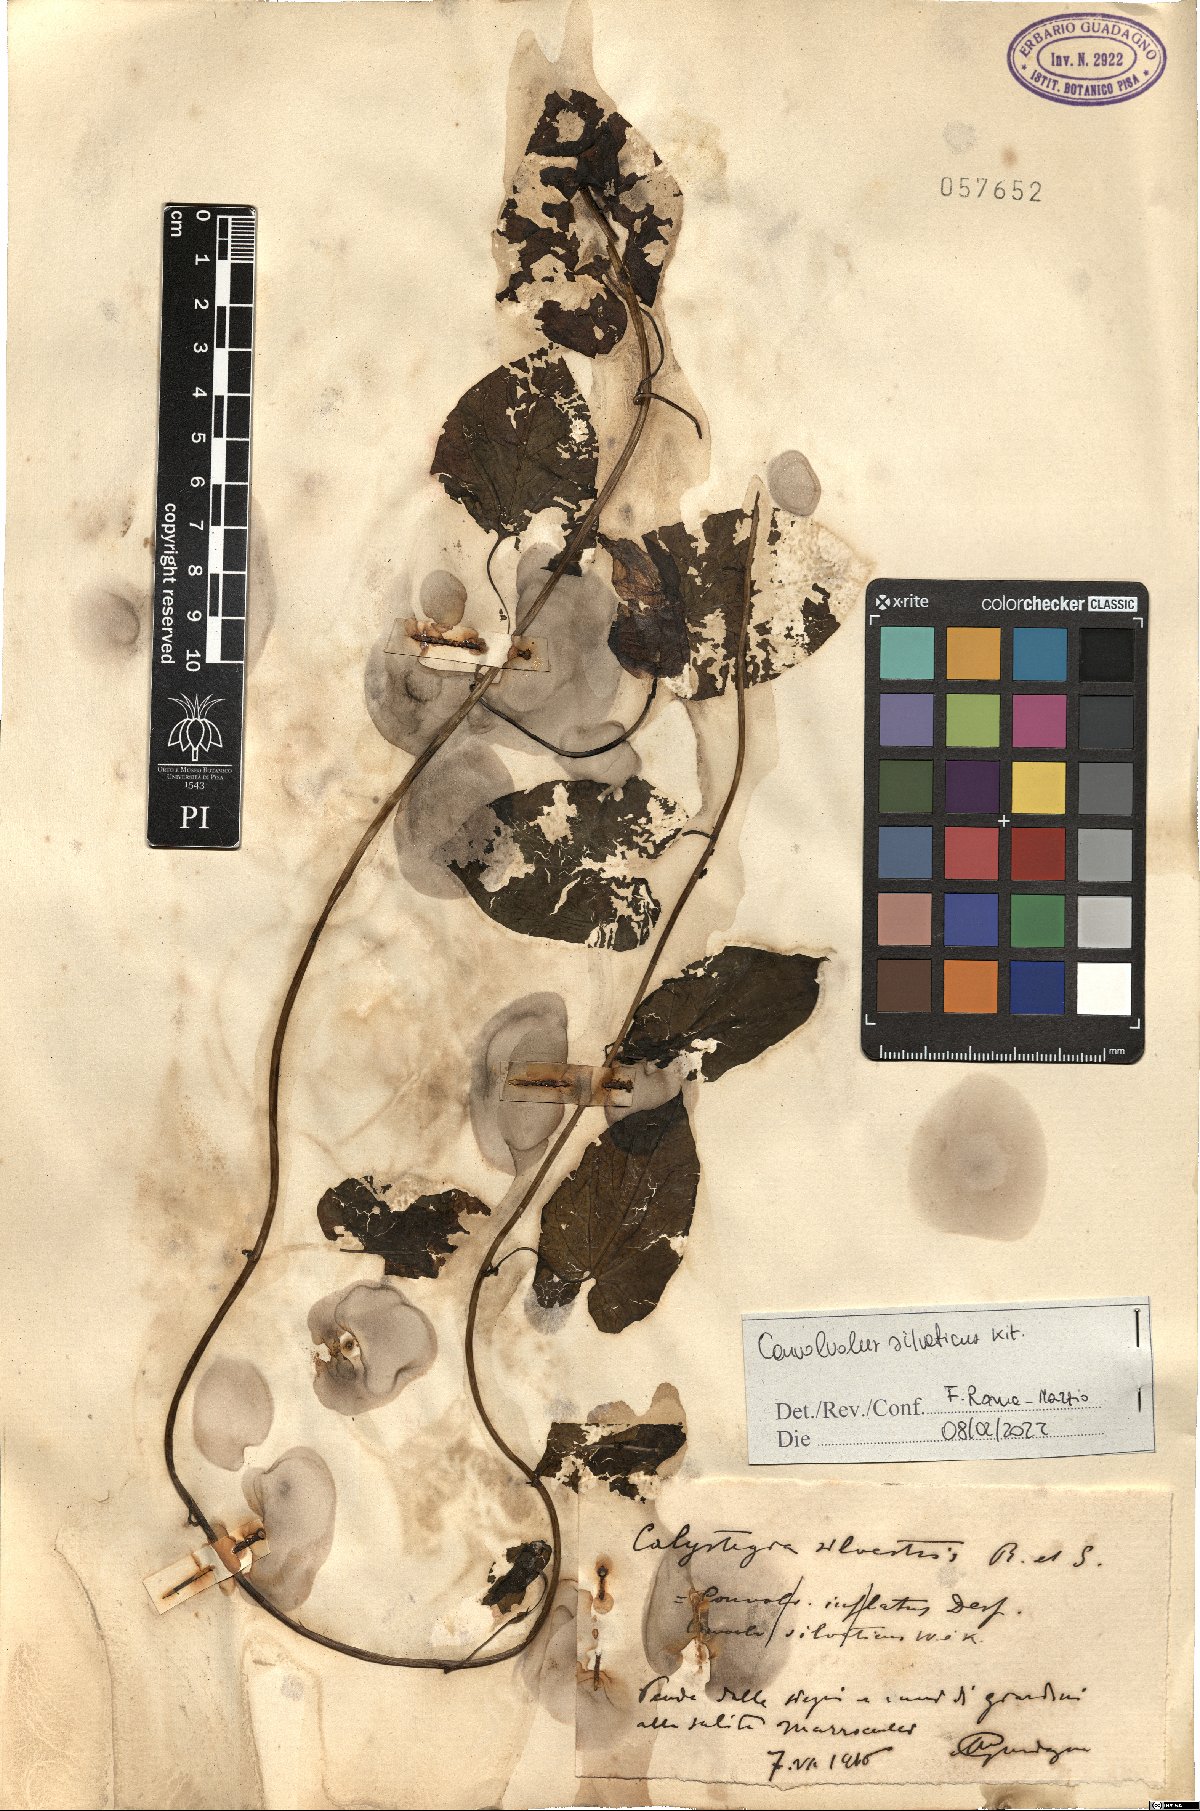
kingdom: Plantae
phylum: Tracheophyta
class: Magnoliopsida
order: Solanales
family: Convolvulaceae
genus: Calystegia
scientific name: Calystegia silvatica
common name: Large bindweed
